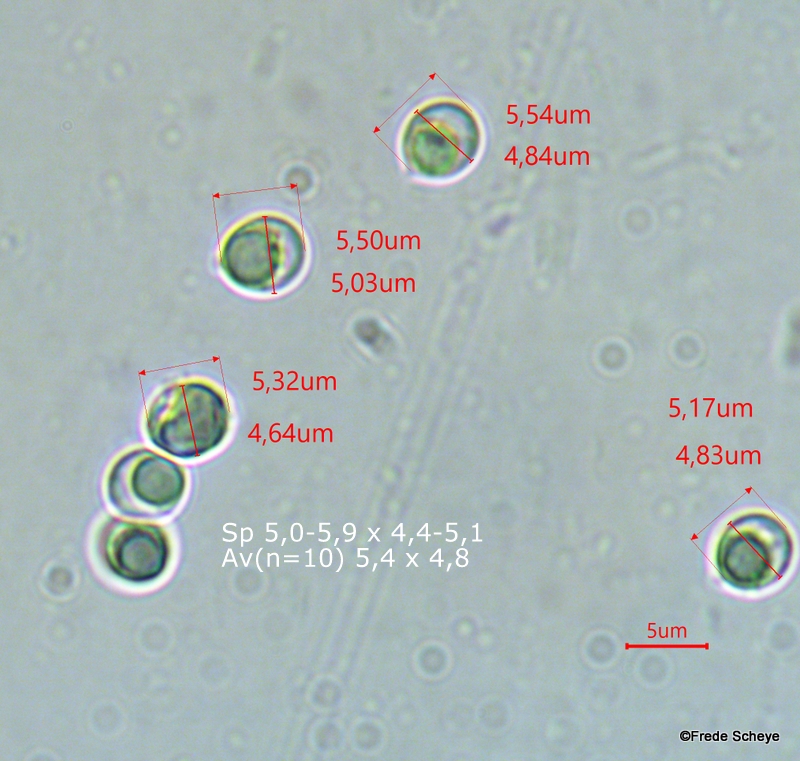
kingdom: Fungi
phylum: Basidiomycota
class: Agaricomycetes
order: Polyporales
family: Meripilaceae
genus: Rigidoporus
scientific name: Rigidoporus sanguinolentus
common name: blod-skorpeporesvamp
